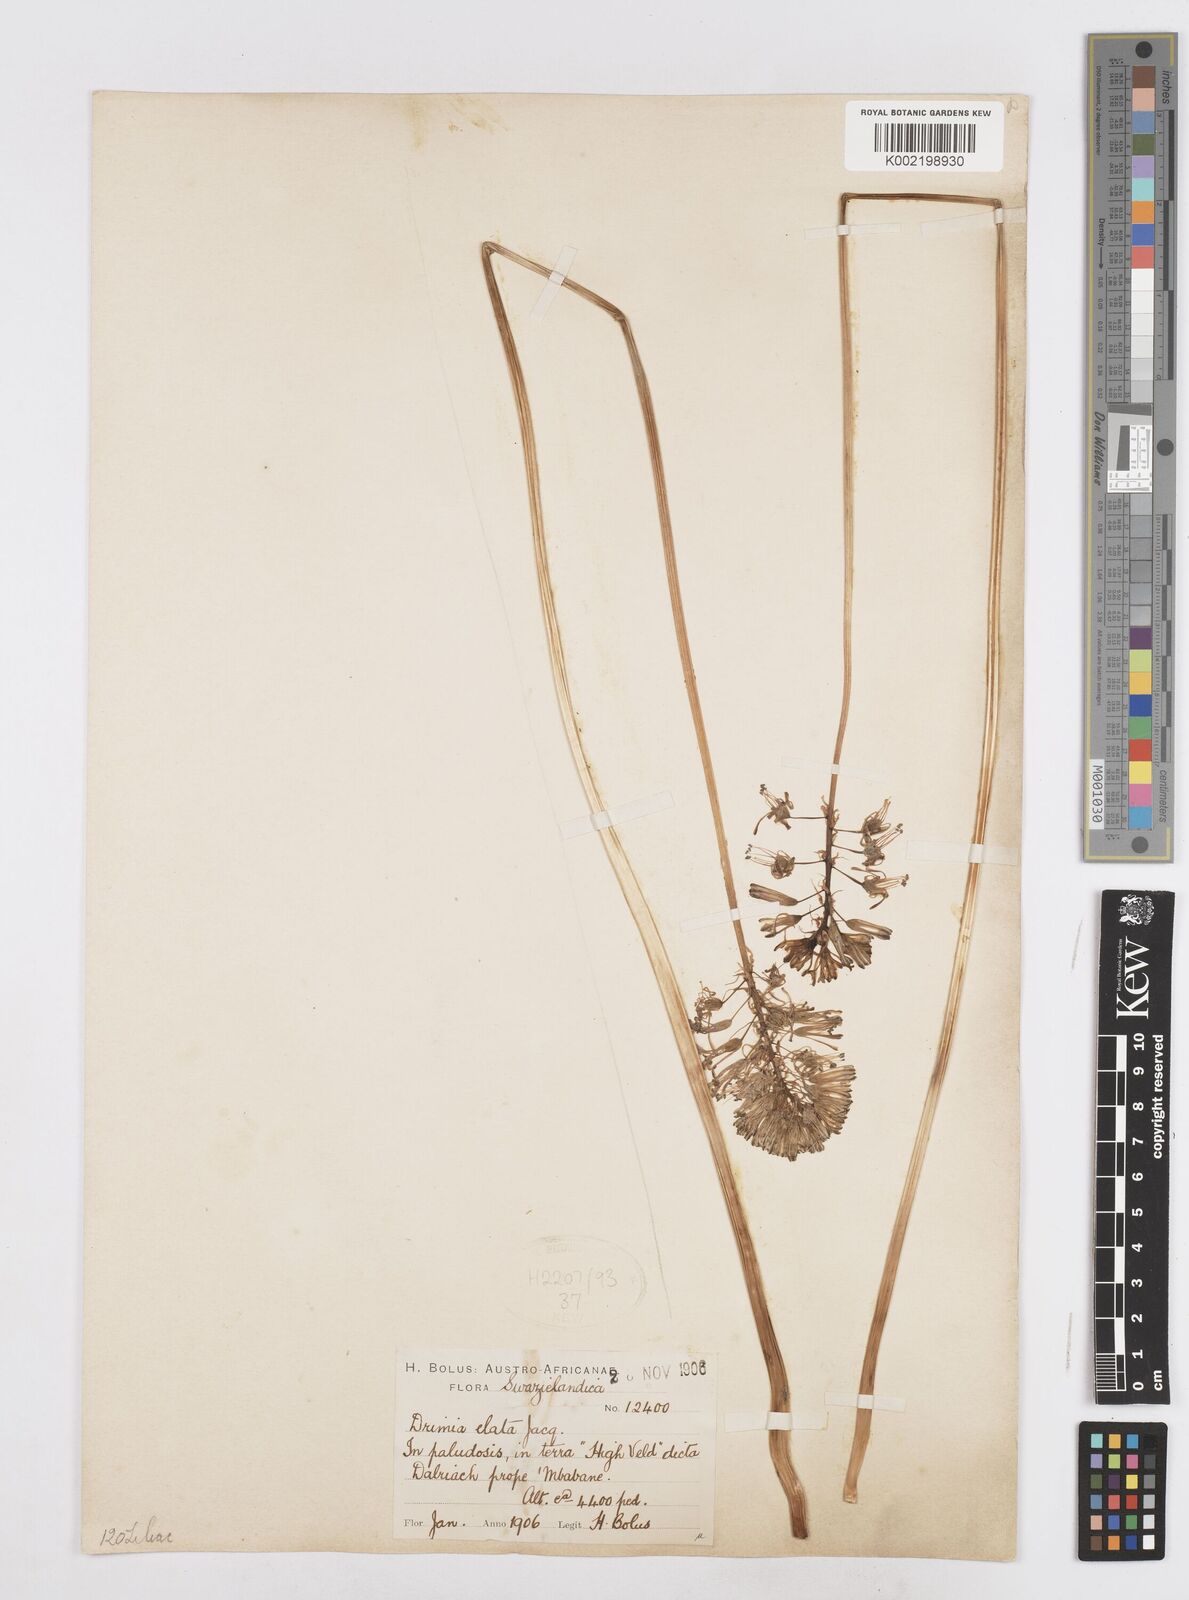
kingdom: Plantae
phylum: Tracheophyta
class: Liliopsida
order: Asparagales
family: Asparagaceae
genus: Drimia
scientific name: Drimia elata
